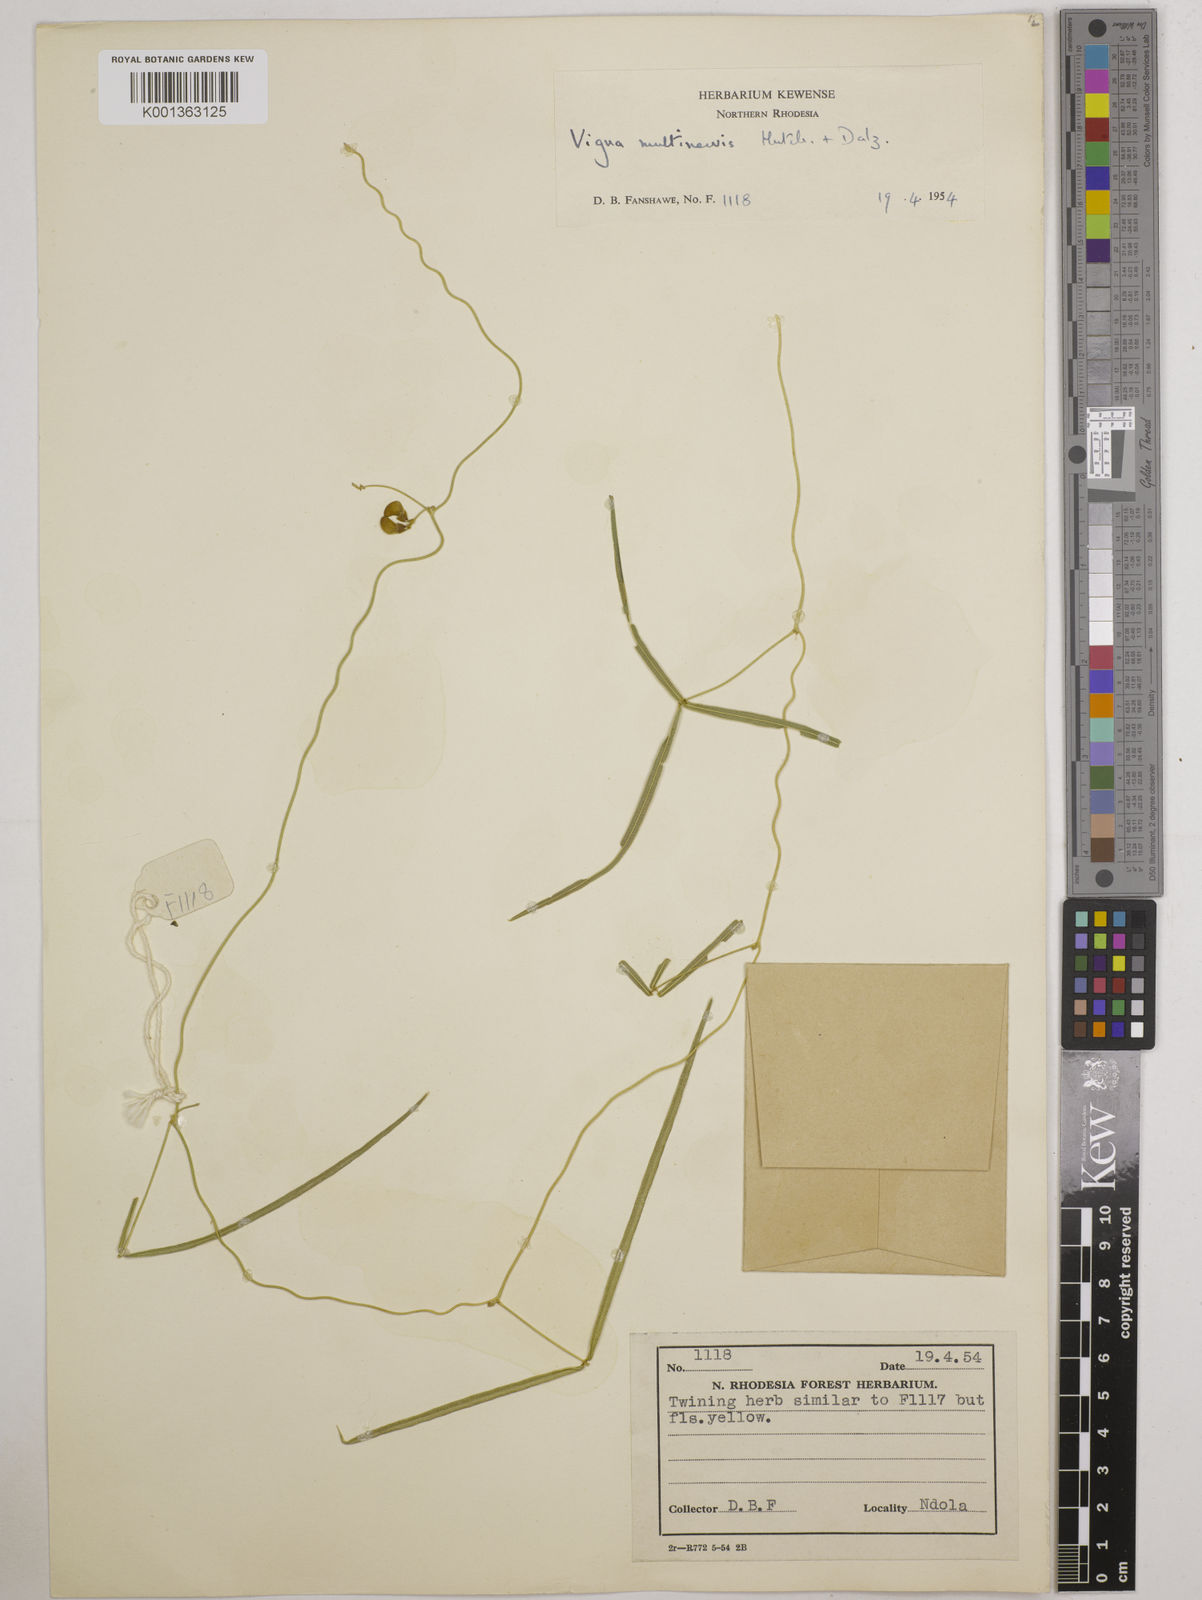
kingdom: Plantae
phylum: Tracheophyta
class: Magnoliopsida
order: Fabales
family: Fabaceae
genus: Vigna
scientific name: Vigna multinervis
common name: Fula-pulaar
